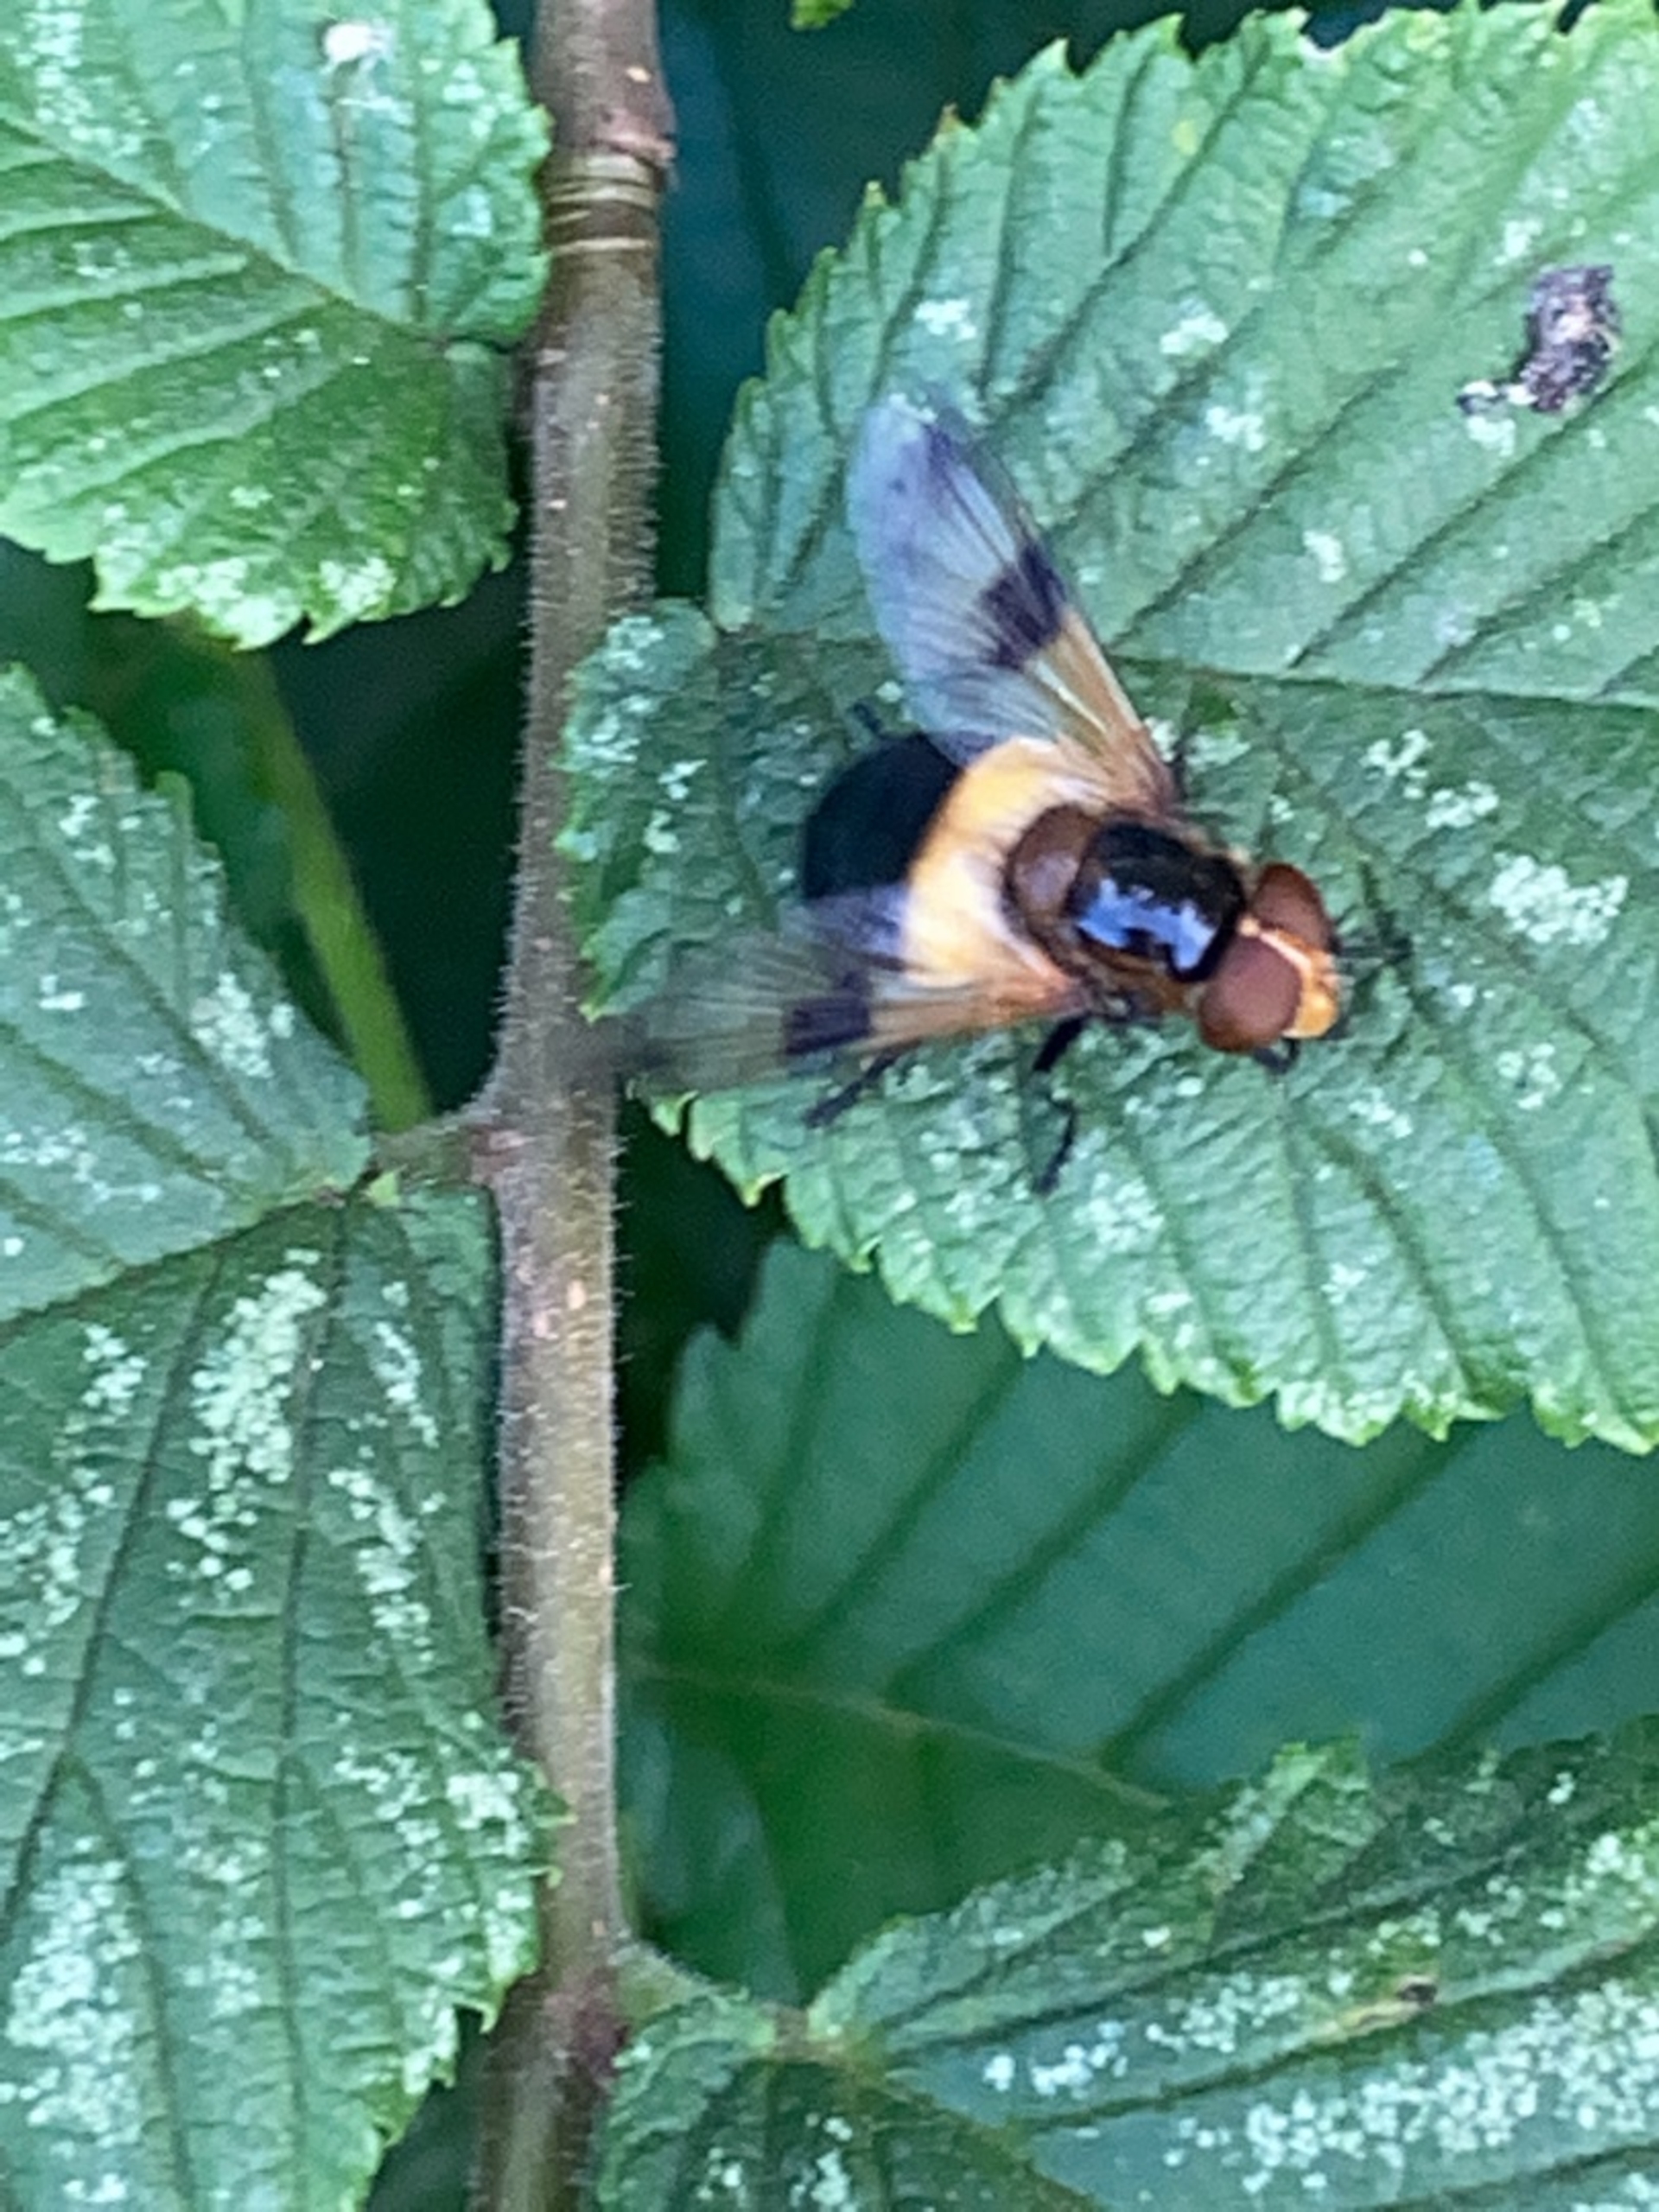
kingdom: Animalia
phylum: Arthropoda
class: Insecta
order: Diptera
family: Syrphidae
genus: Volucella
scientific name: Volucella pellucens
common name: Hvidbåndet humlesvirreflue
